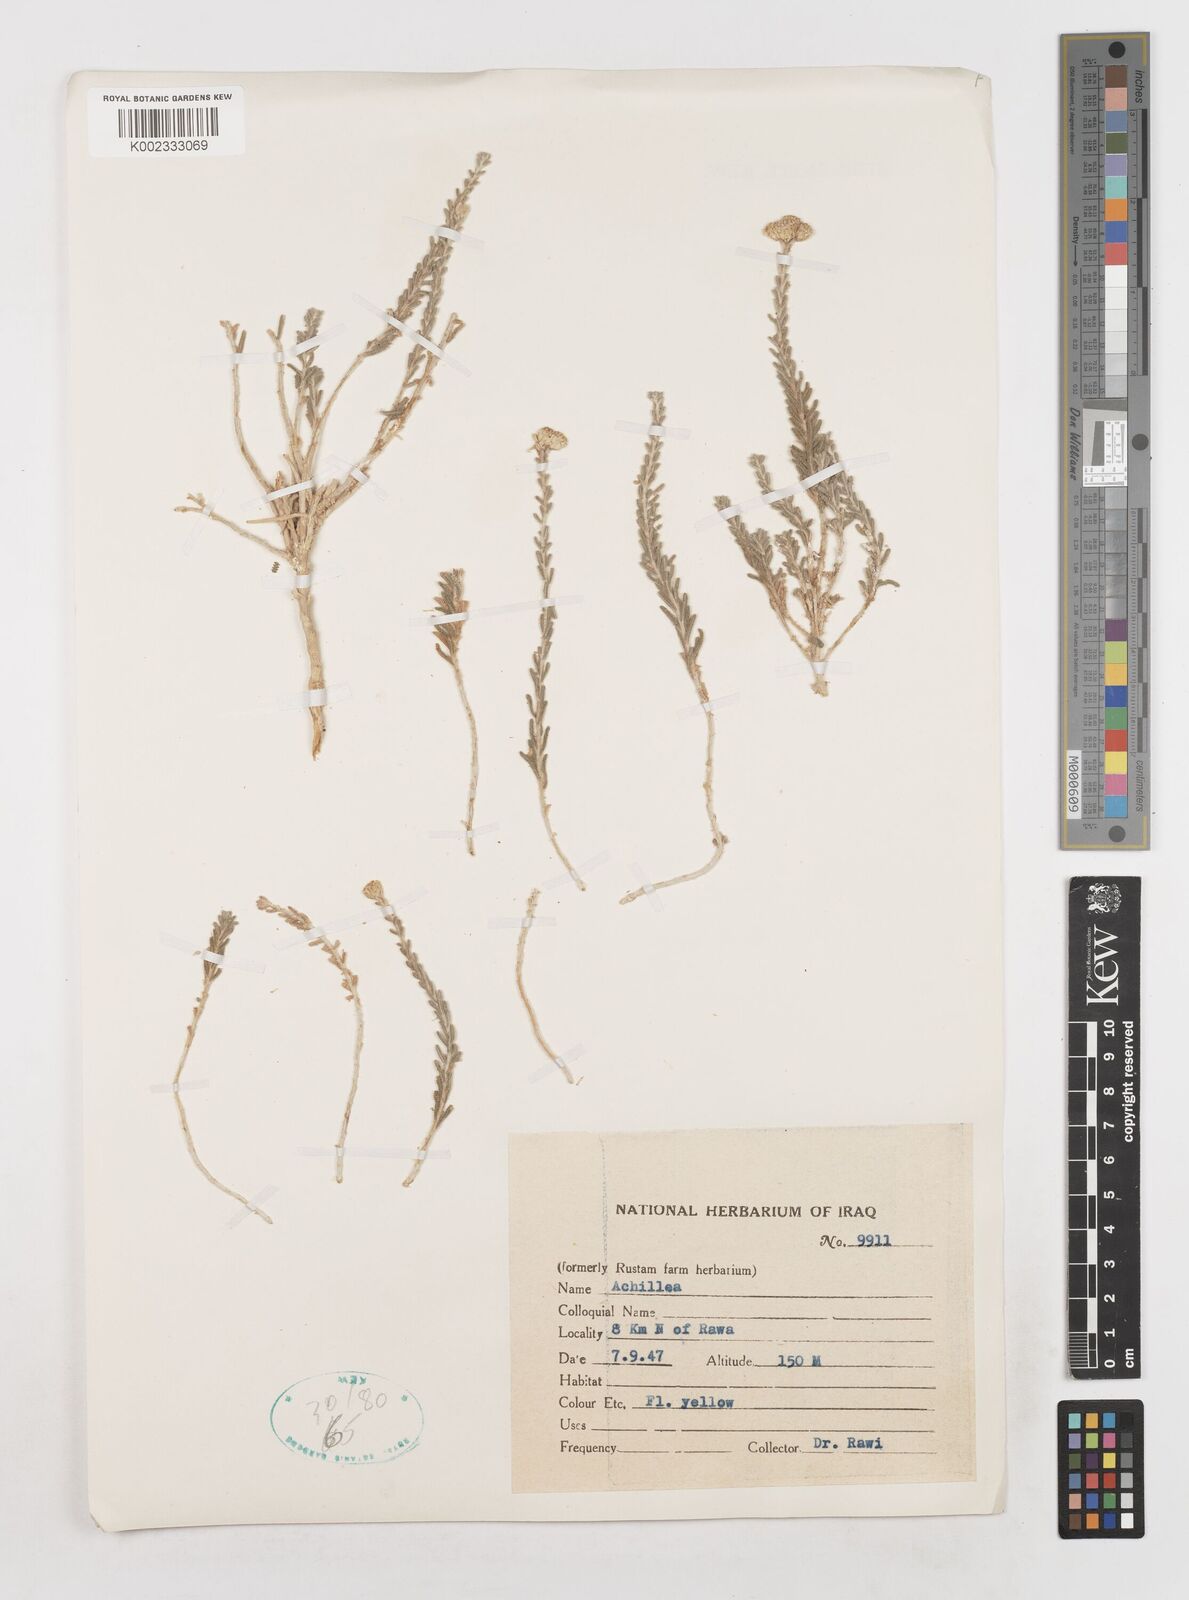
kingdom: Plantae
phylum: Tracheophyta
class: Magnoliopsida
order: Asterales
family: Asteraceae
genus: Achillea
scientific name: Achillea
